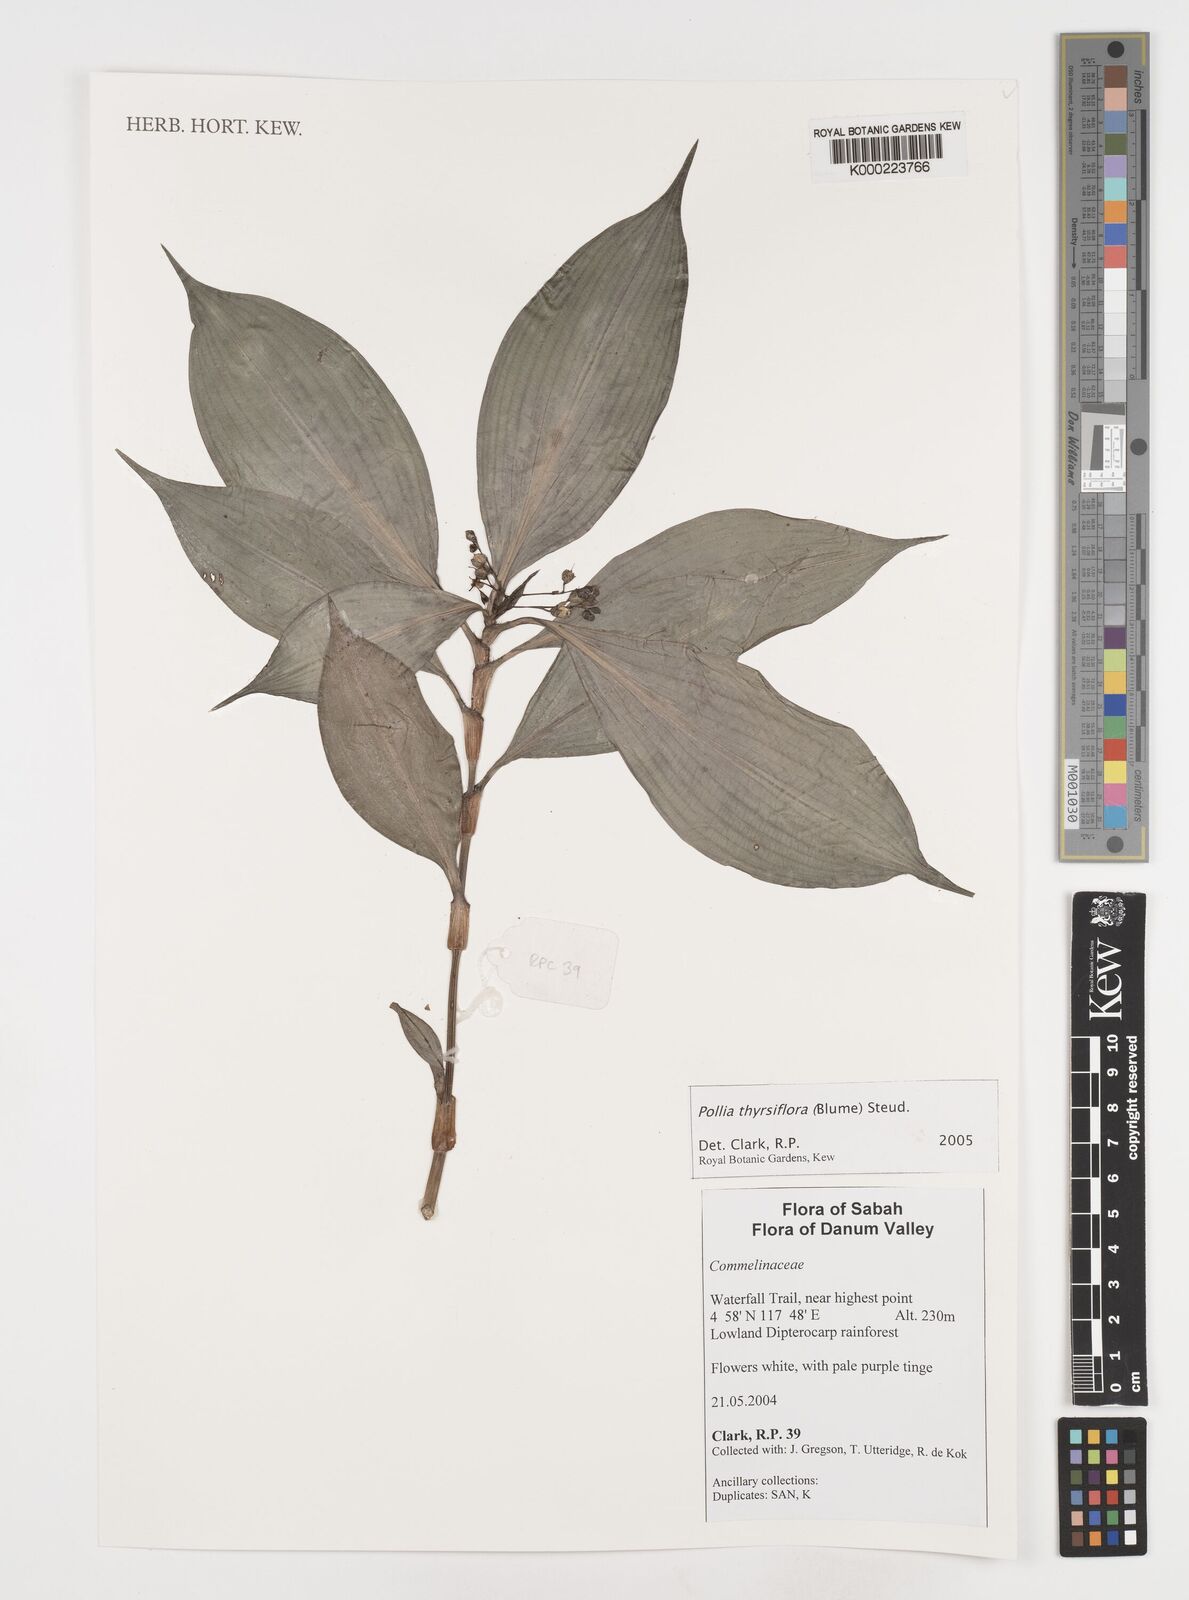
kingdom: Plantae
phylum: Tracheophyta
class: Liliopsida
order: Commelinales
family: Commelinaceae
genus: Pollia
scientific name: Pollia thyrsiflora
